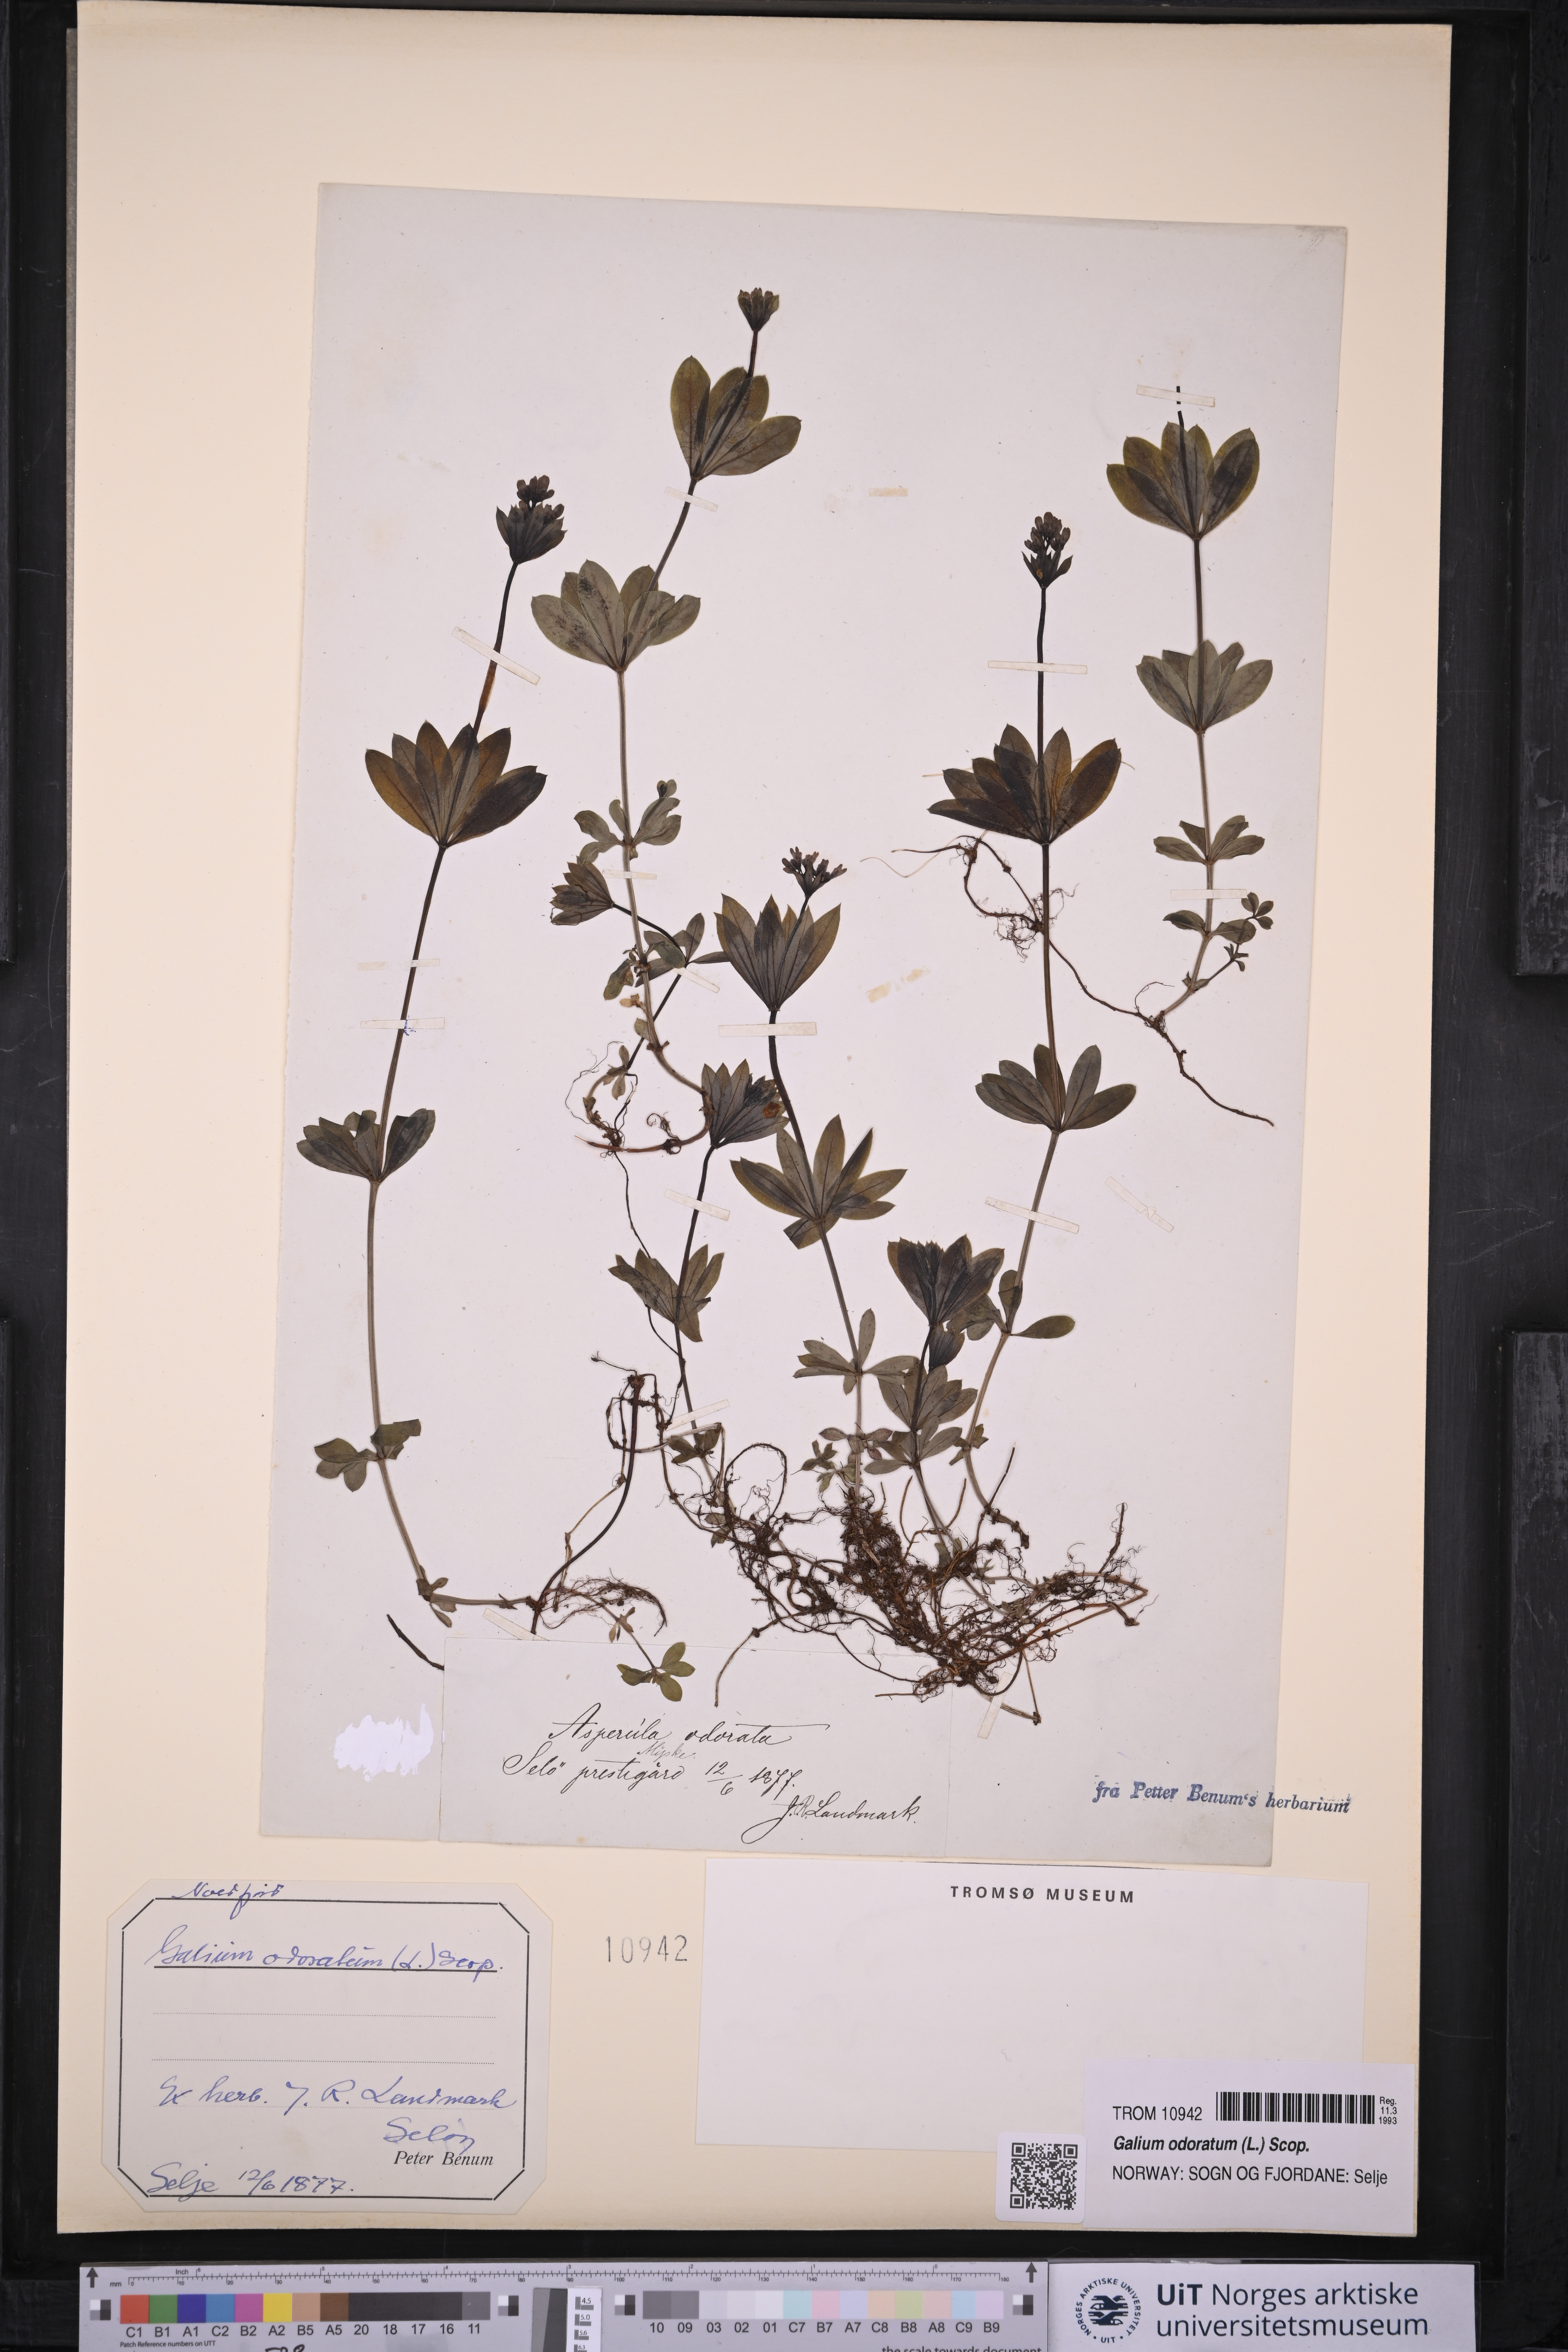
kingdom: Plantae
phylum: Tracheophyta
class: Magnoliopsida
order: Gentianales
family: Rubiaceae
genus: Galium
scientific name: Galium odoratum
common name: Sweet woodruff
